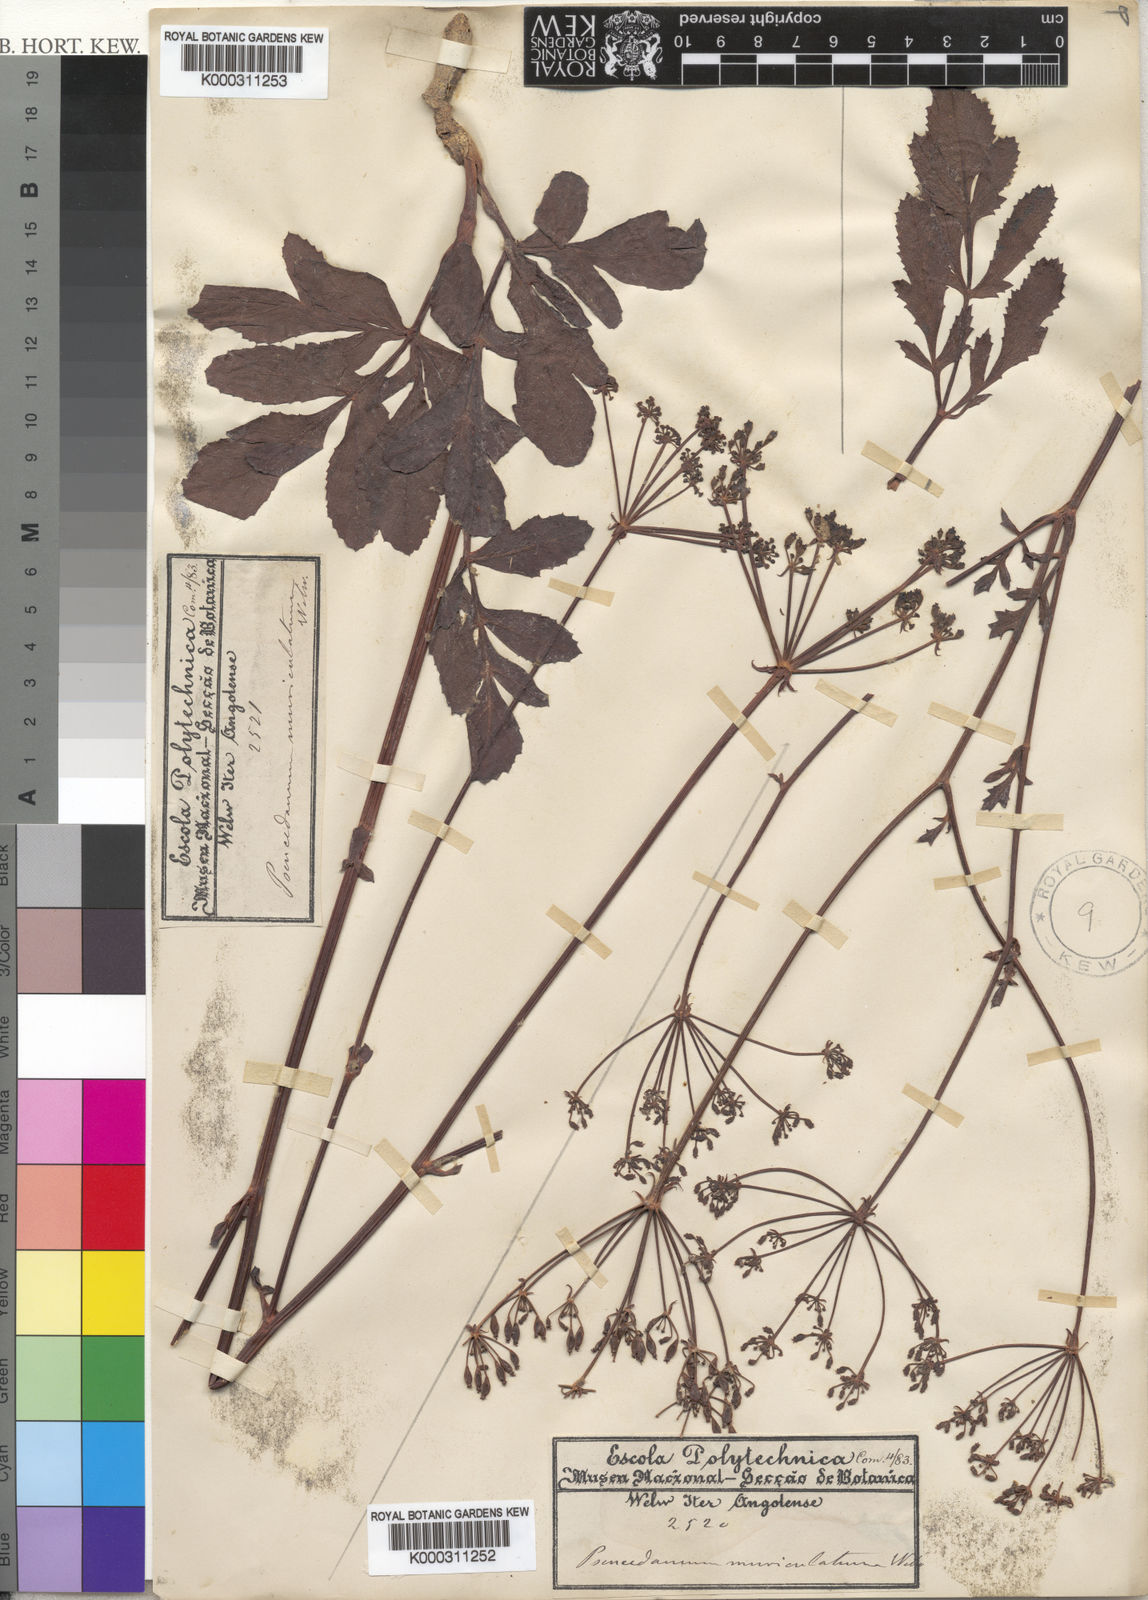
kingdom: Plantae
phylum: Tracheophyta
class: Magnoliopsida
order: Apiales
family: Apiaceae
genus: Peucedanum
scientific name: Peucedanum
